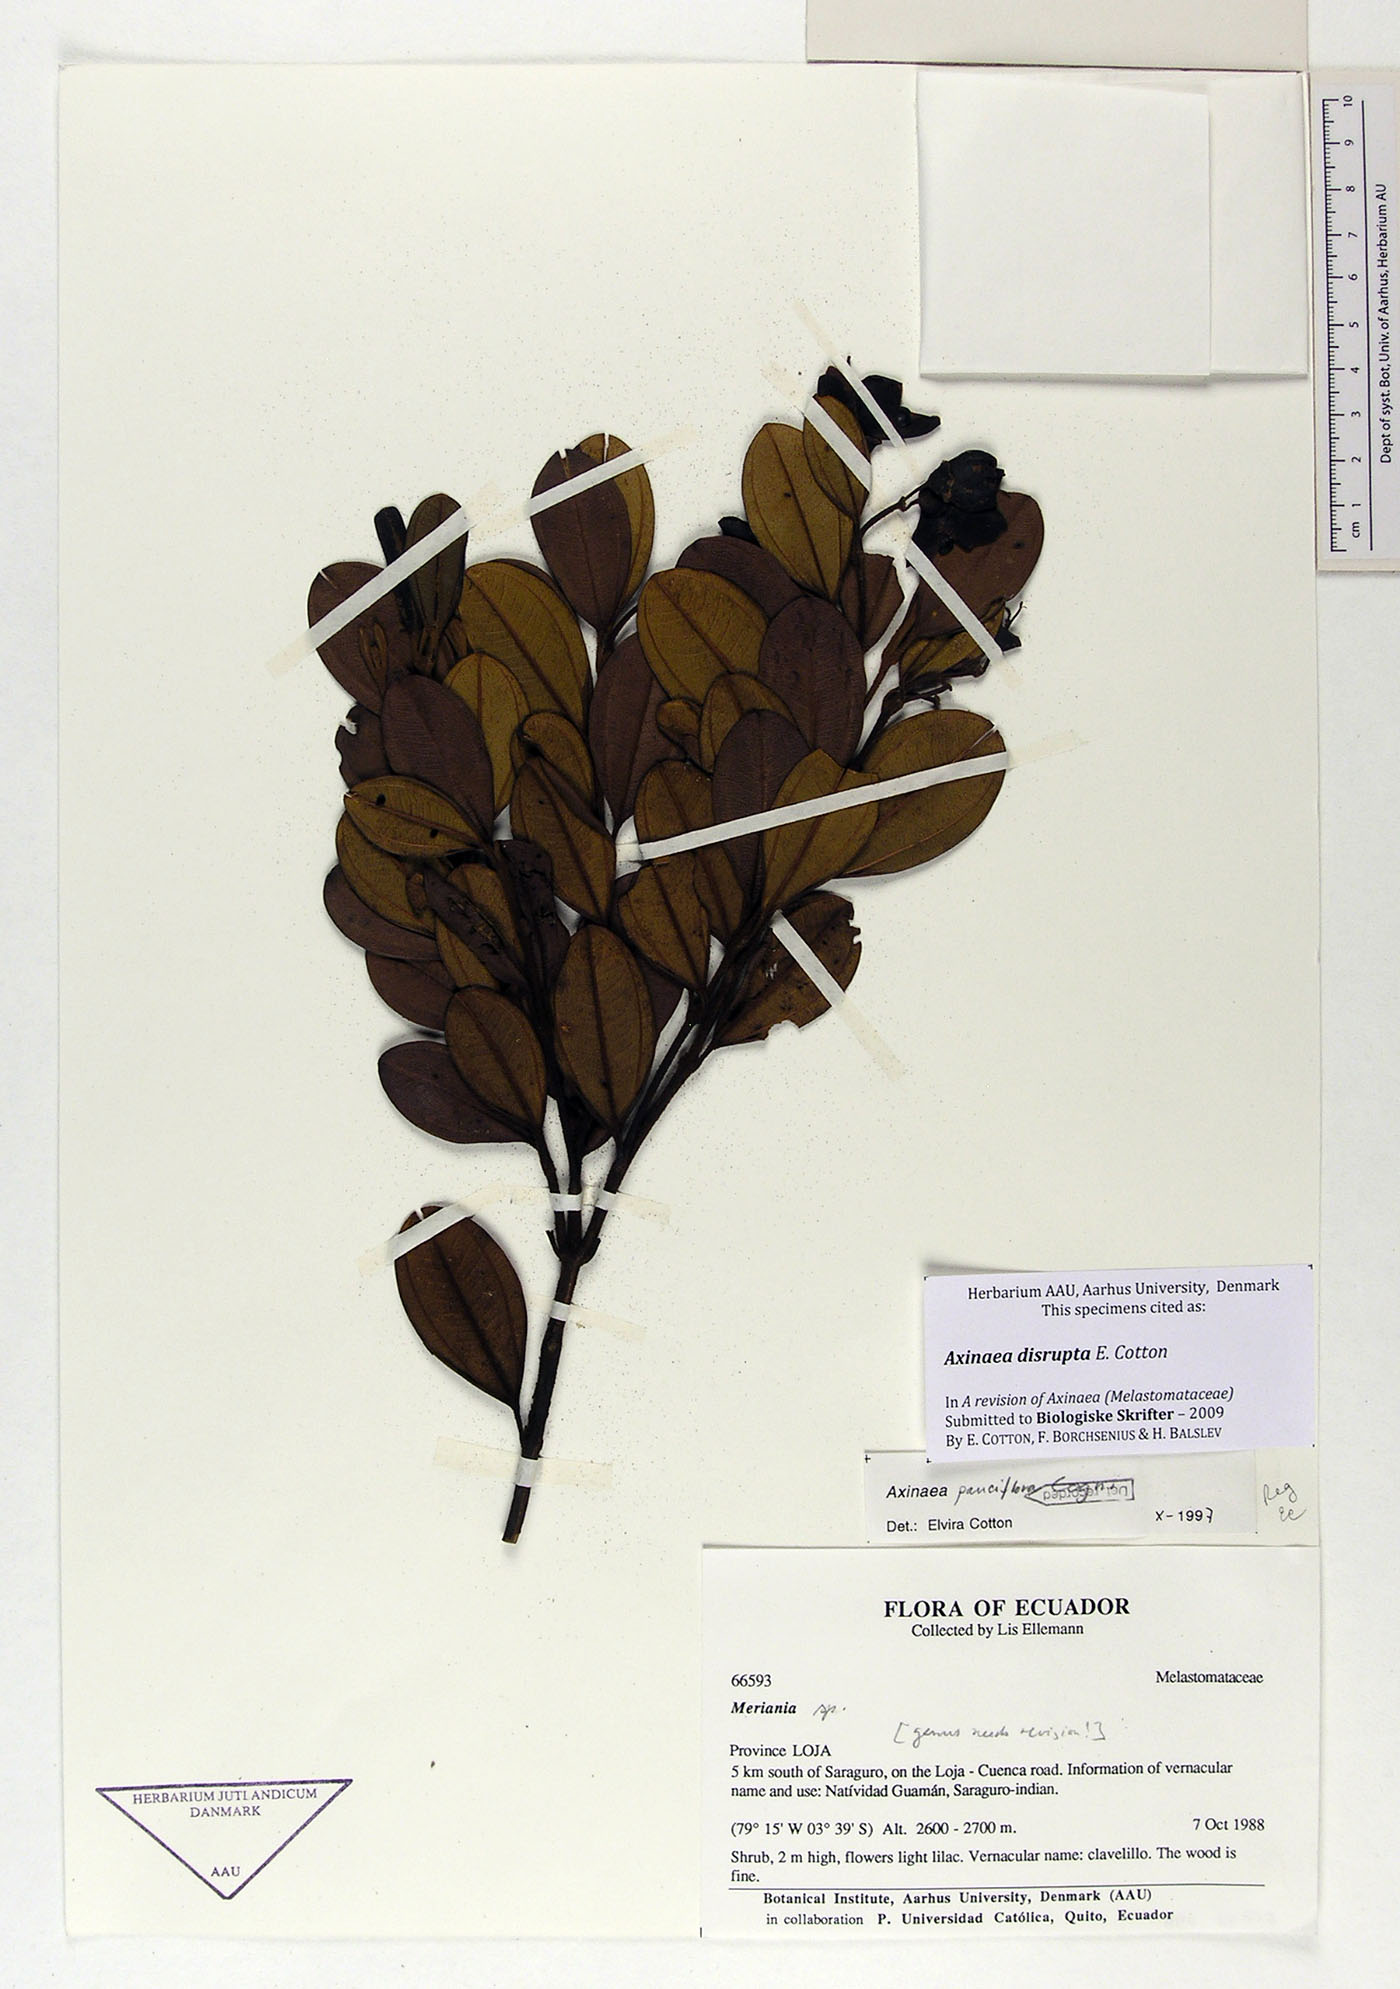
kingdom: Plantae
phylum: Tracheophyta
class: Magnoliopsida
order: Myrtales
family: Melastomataceae
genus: Axinaea
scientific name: Axinaea disrupta
